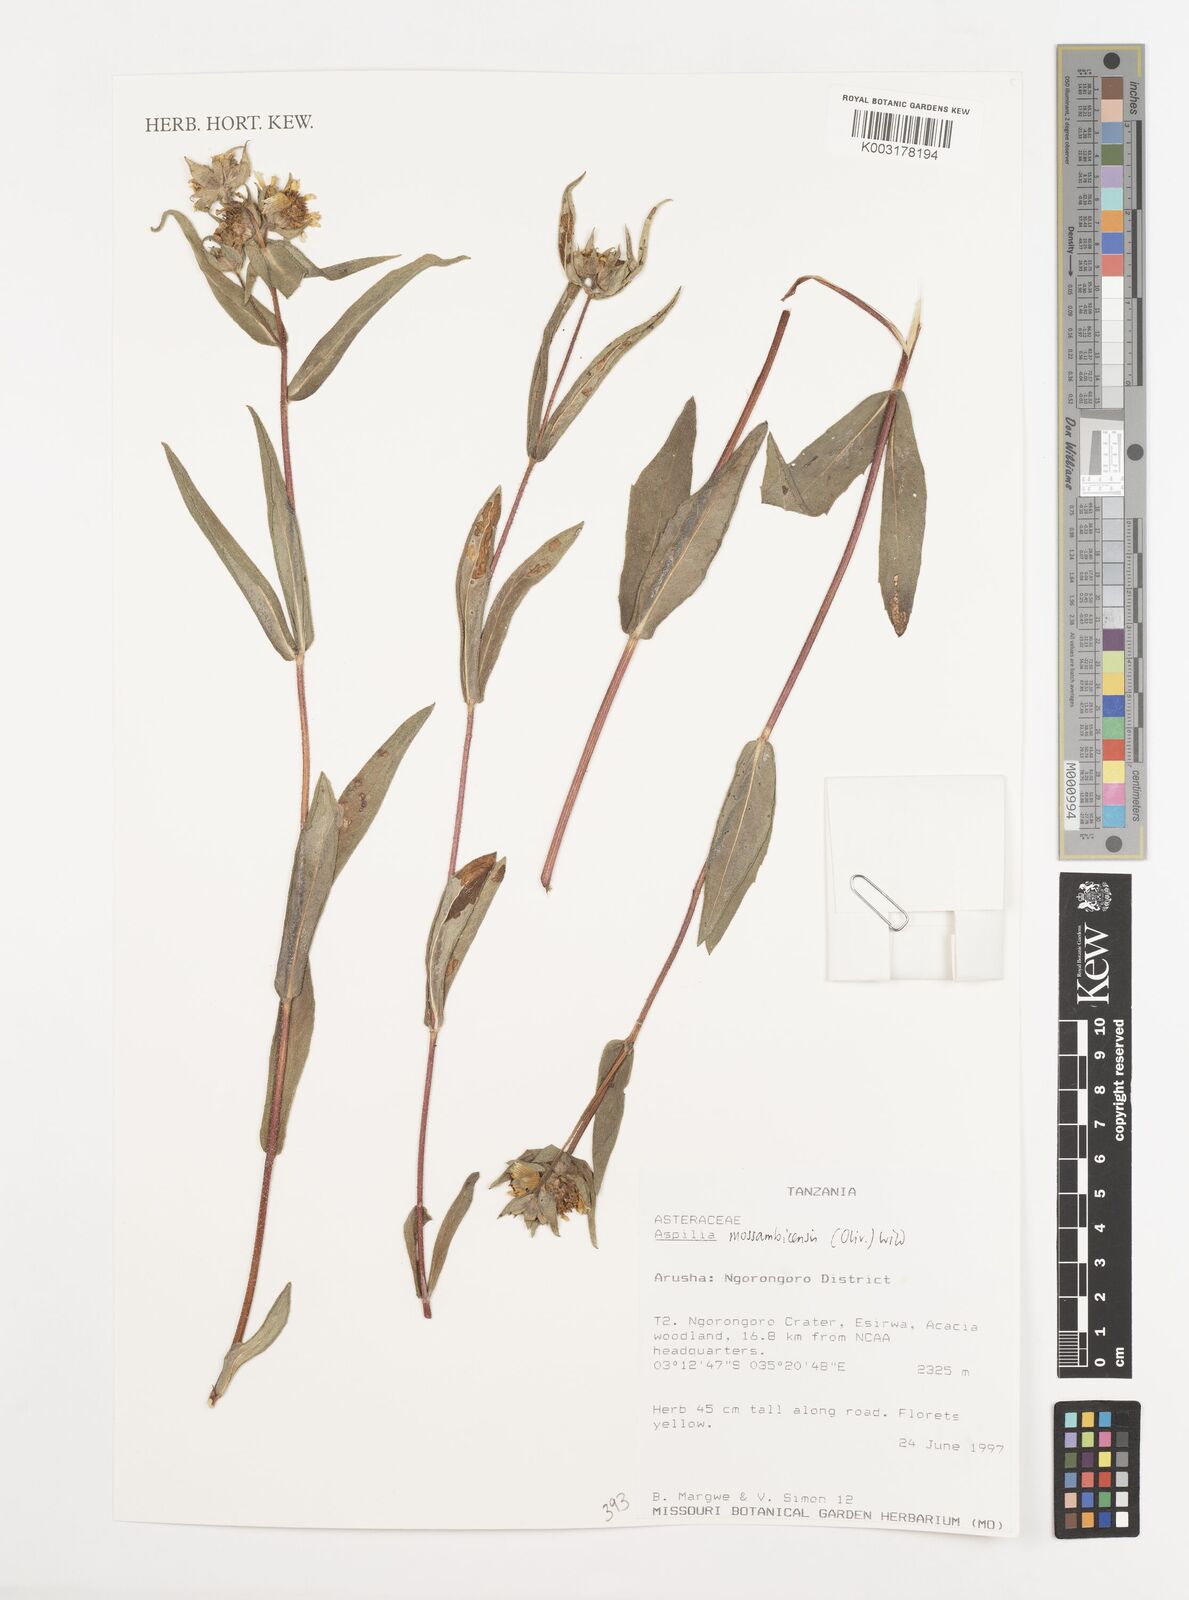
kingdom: Plantae
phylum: Tracheophyta
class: Magnoliopsida
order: Asterales
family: Asteraceae
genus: Aspilia
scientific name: Aspilia mossambicensis
